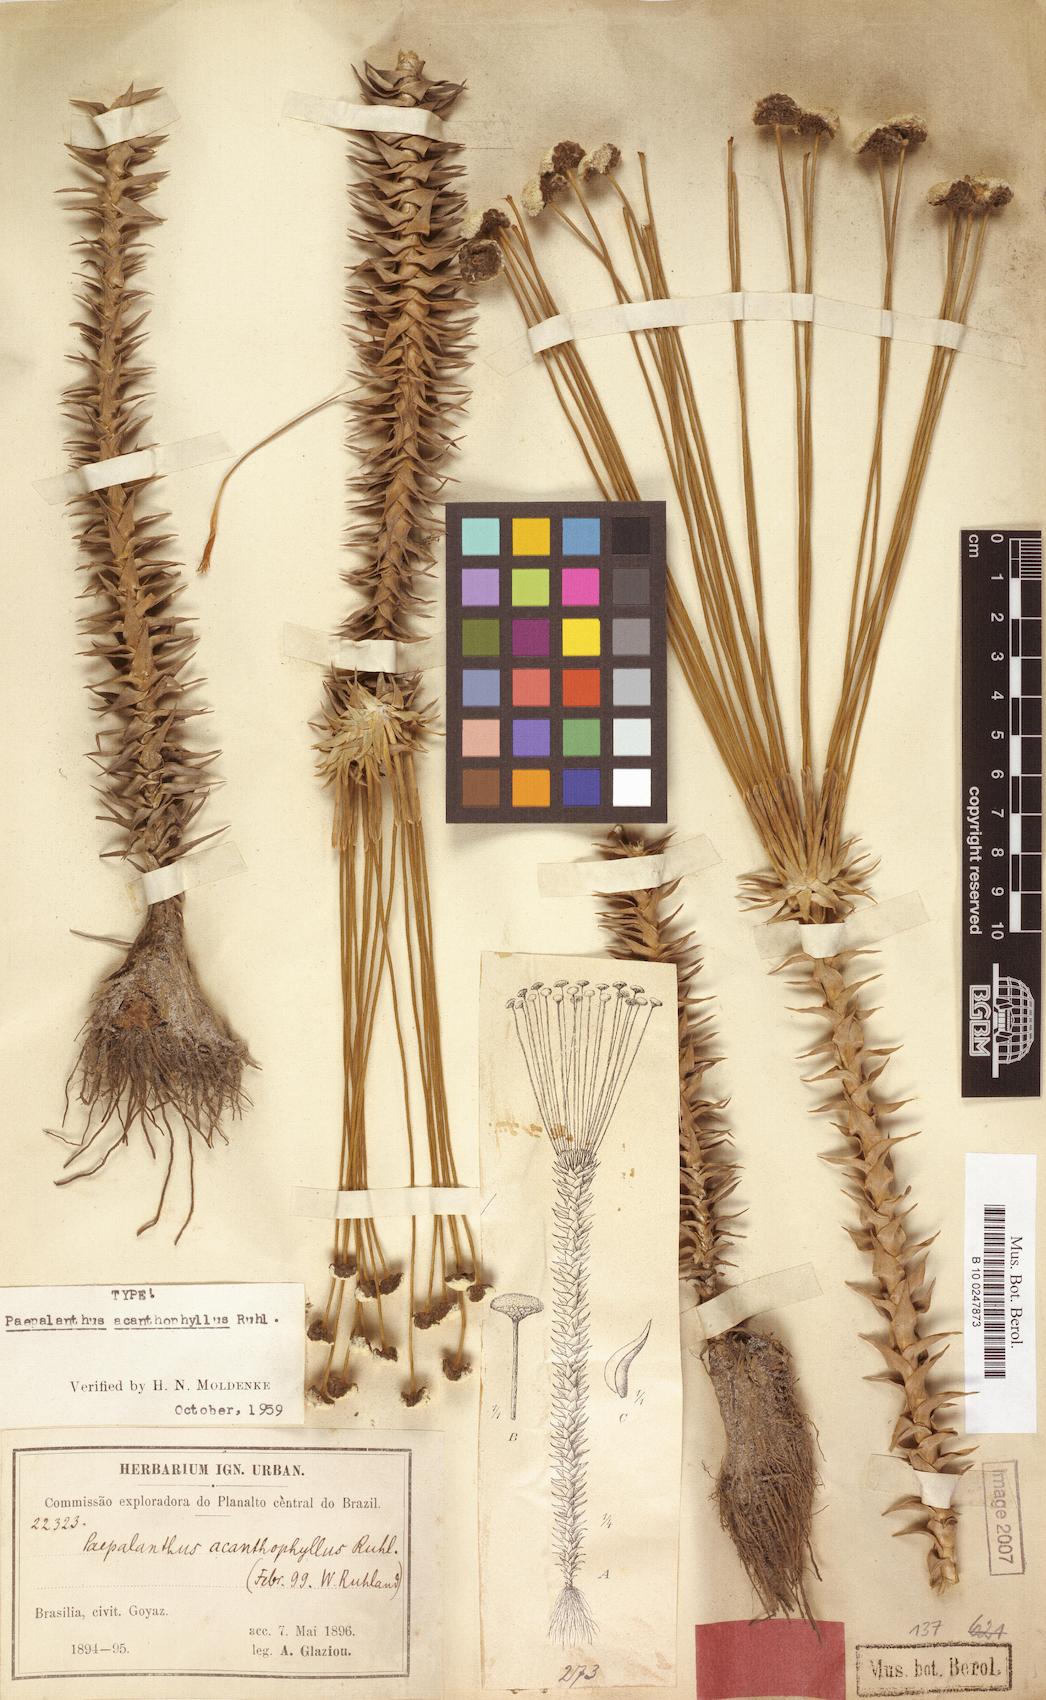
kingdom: Plantae
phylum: Tracheophyta
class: Liliopsida
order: Poales
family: Eriocaulaceae
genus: Paepalanthus
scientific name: Paepalanthus acanthophyllus
